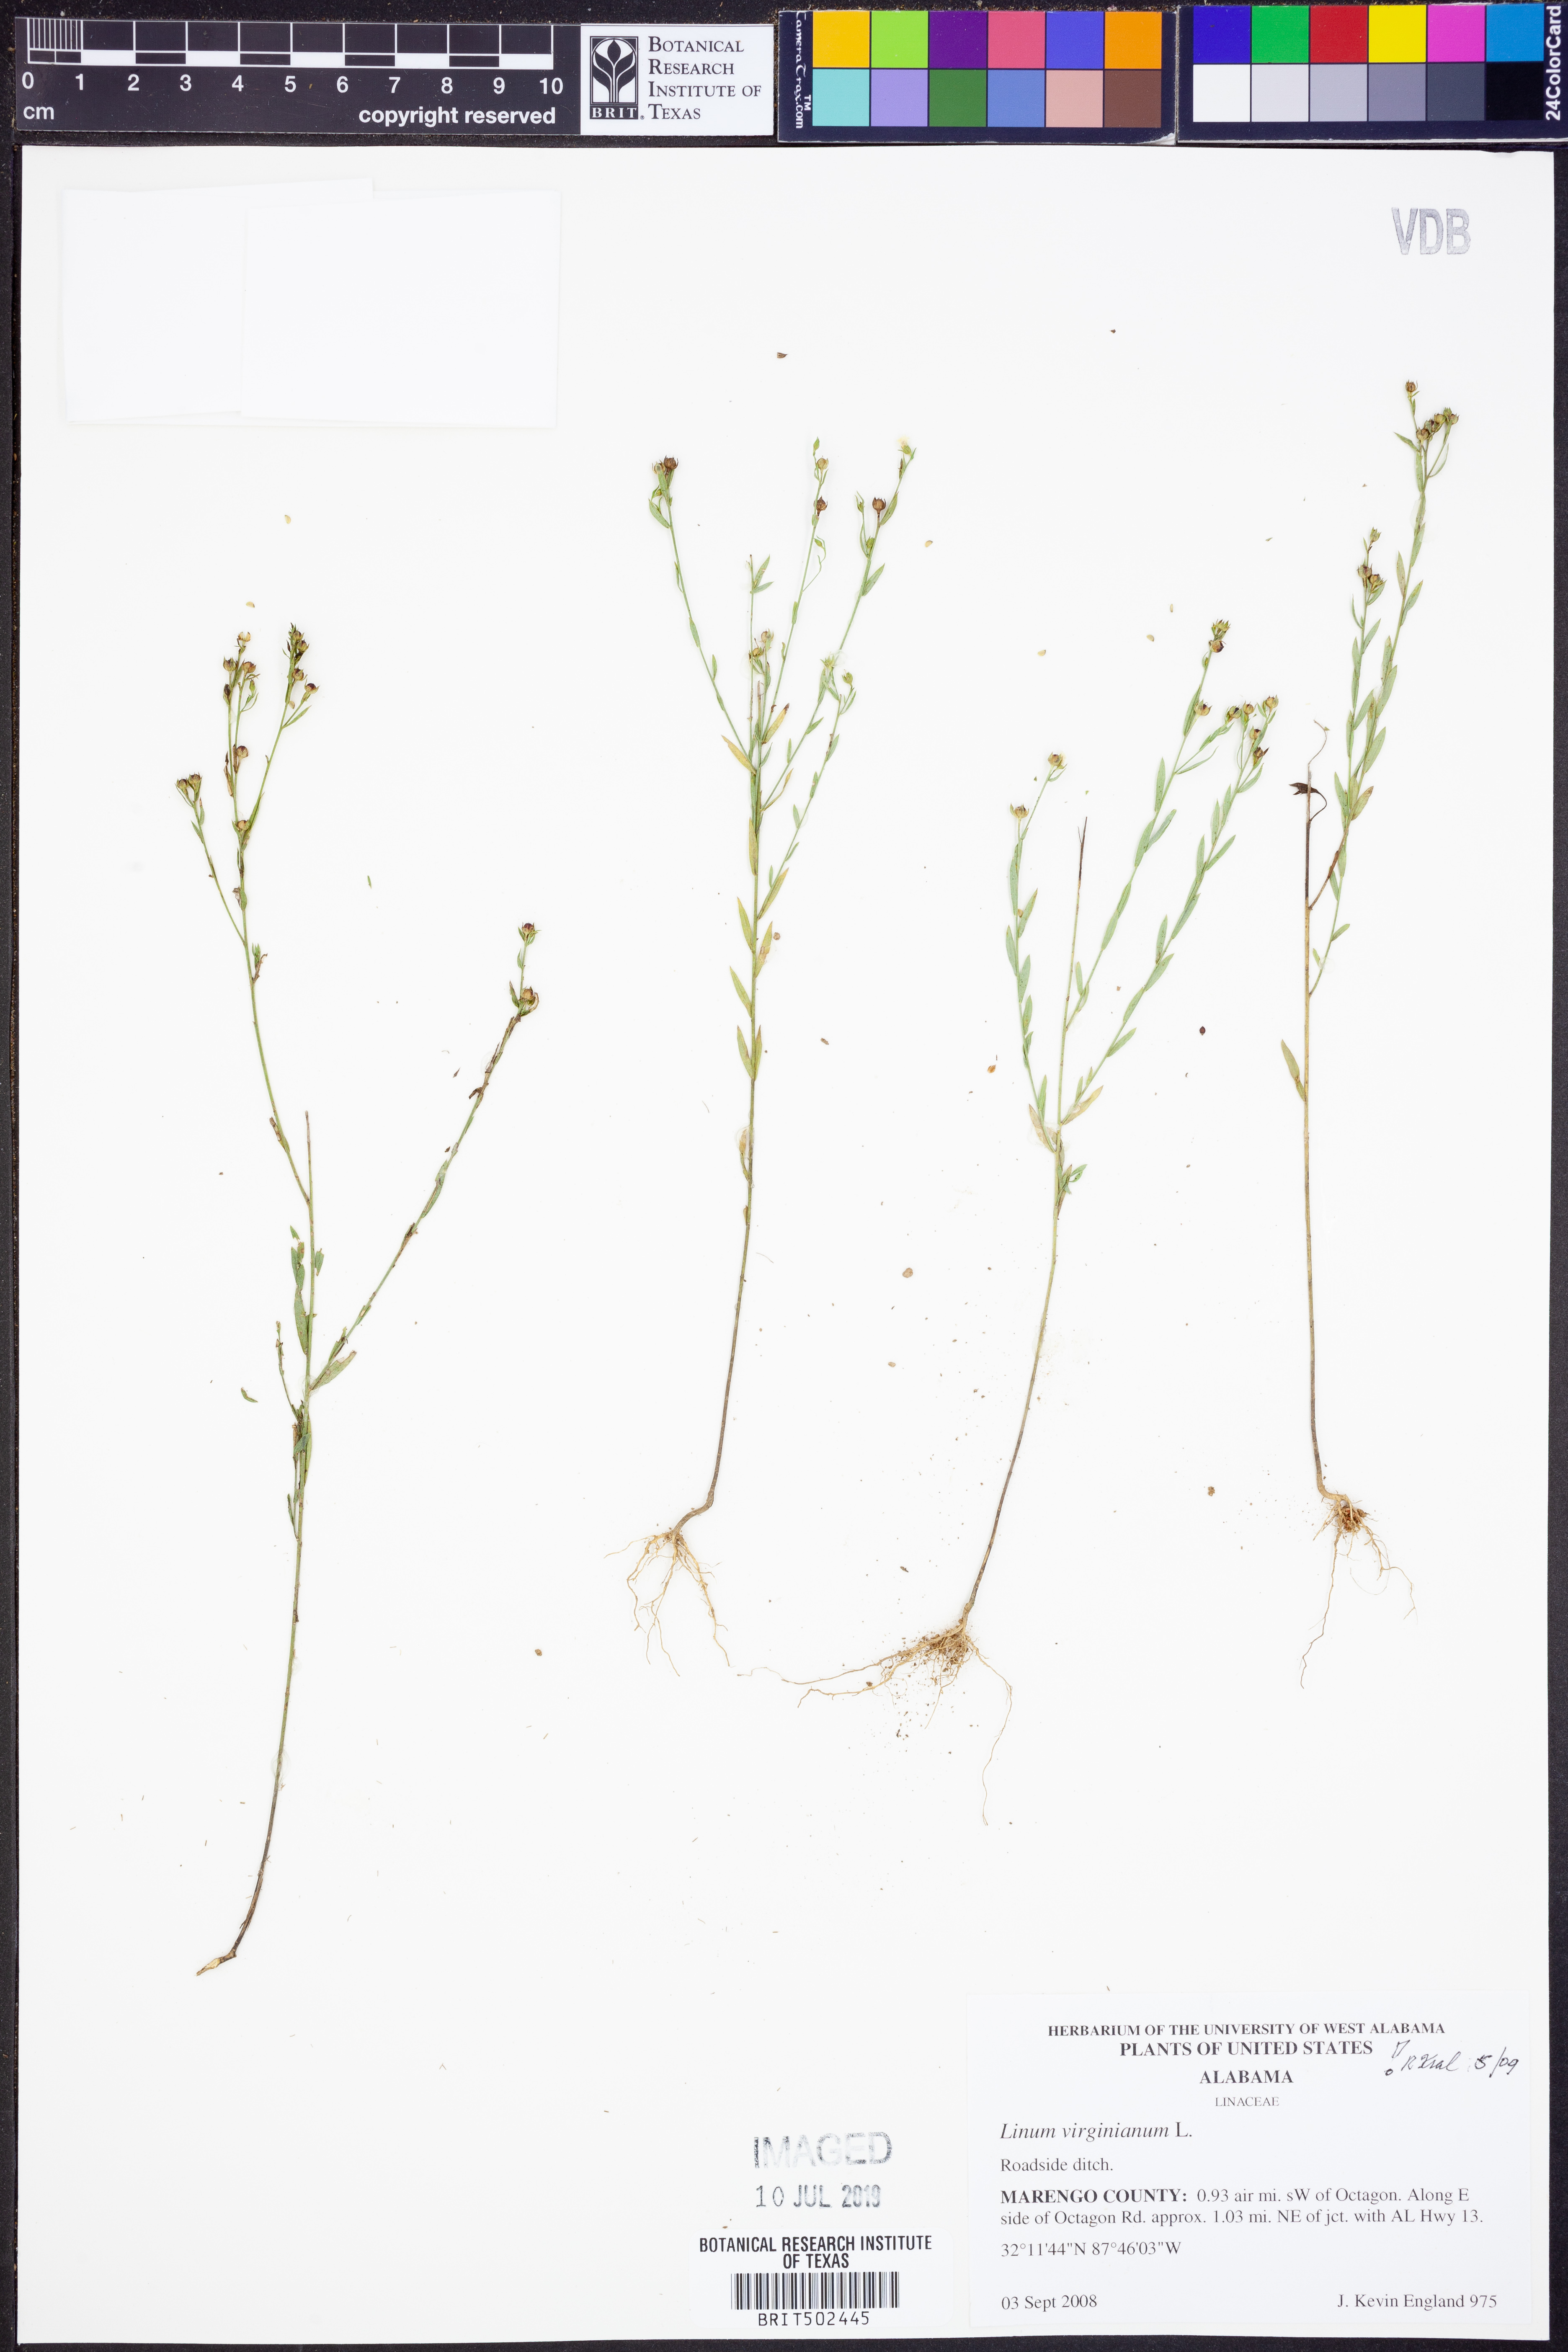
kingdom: Plantae
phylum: Tracheophyta
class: Magnoliopsida
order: Malpighiales
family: Linaceae
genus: Linum
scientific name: Linum virginianum
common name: Slender yellow flax
